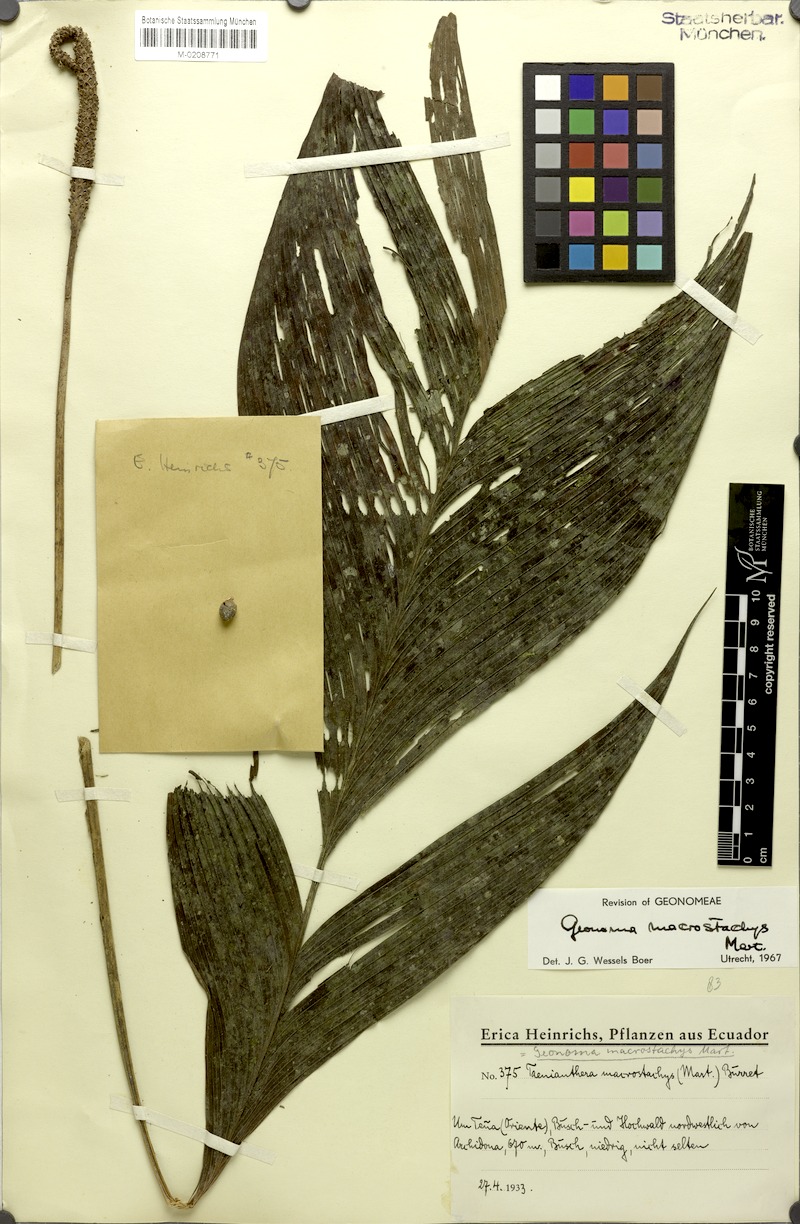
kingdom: Plantae
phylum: Tracheophyta
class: Liliopsida
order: Arecales
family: Arecaceae
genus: Geonoma
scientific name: Geonoma macrostachys
